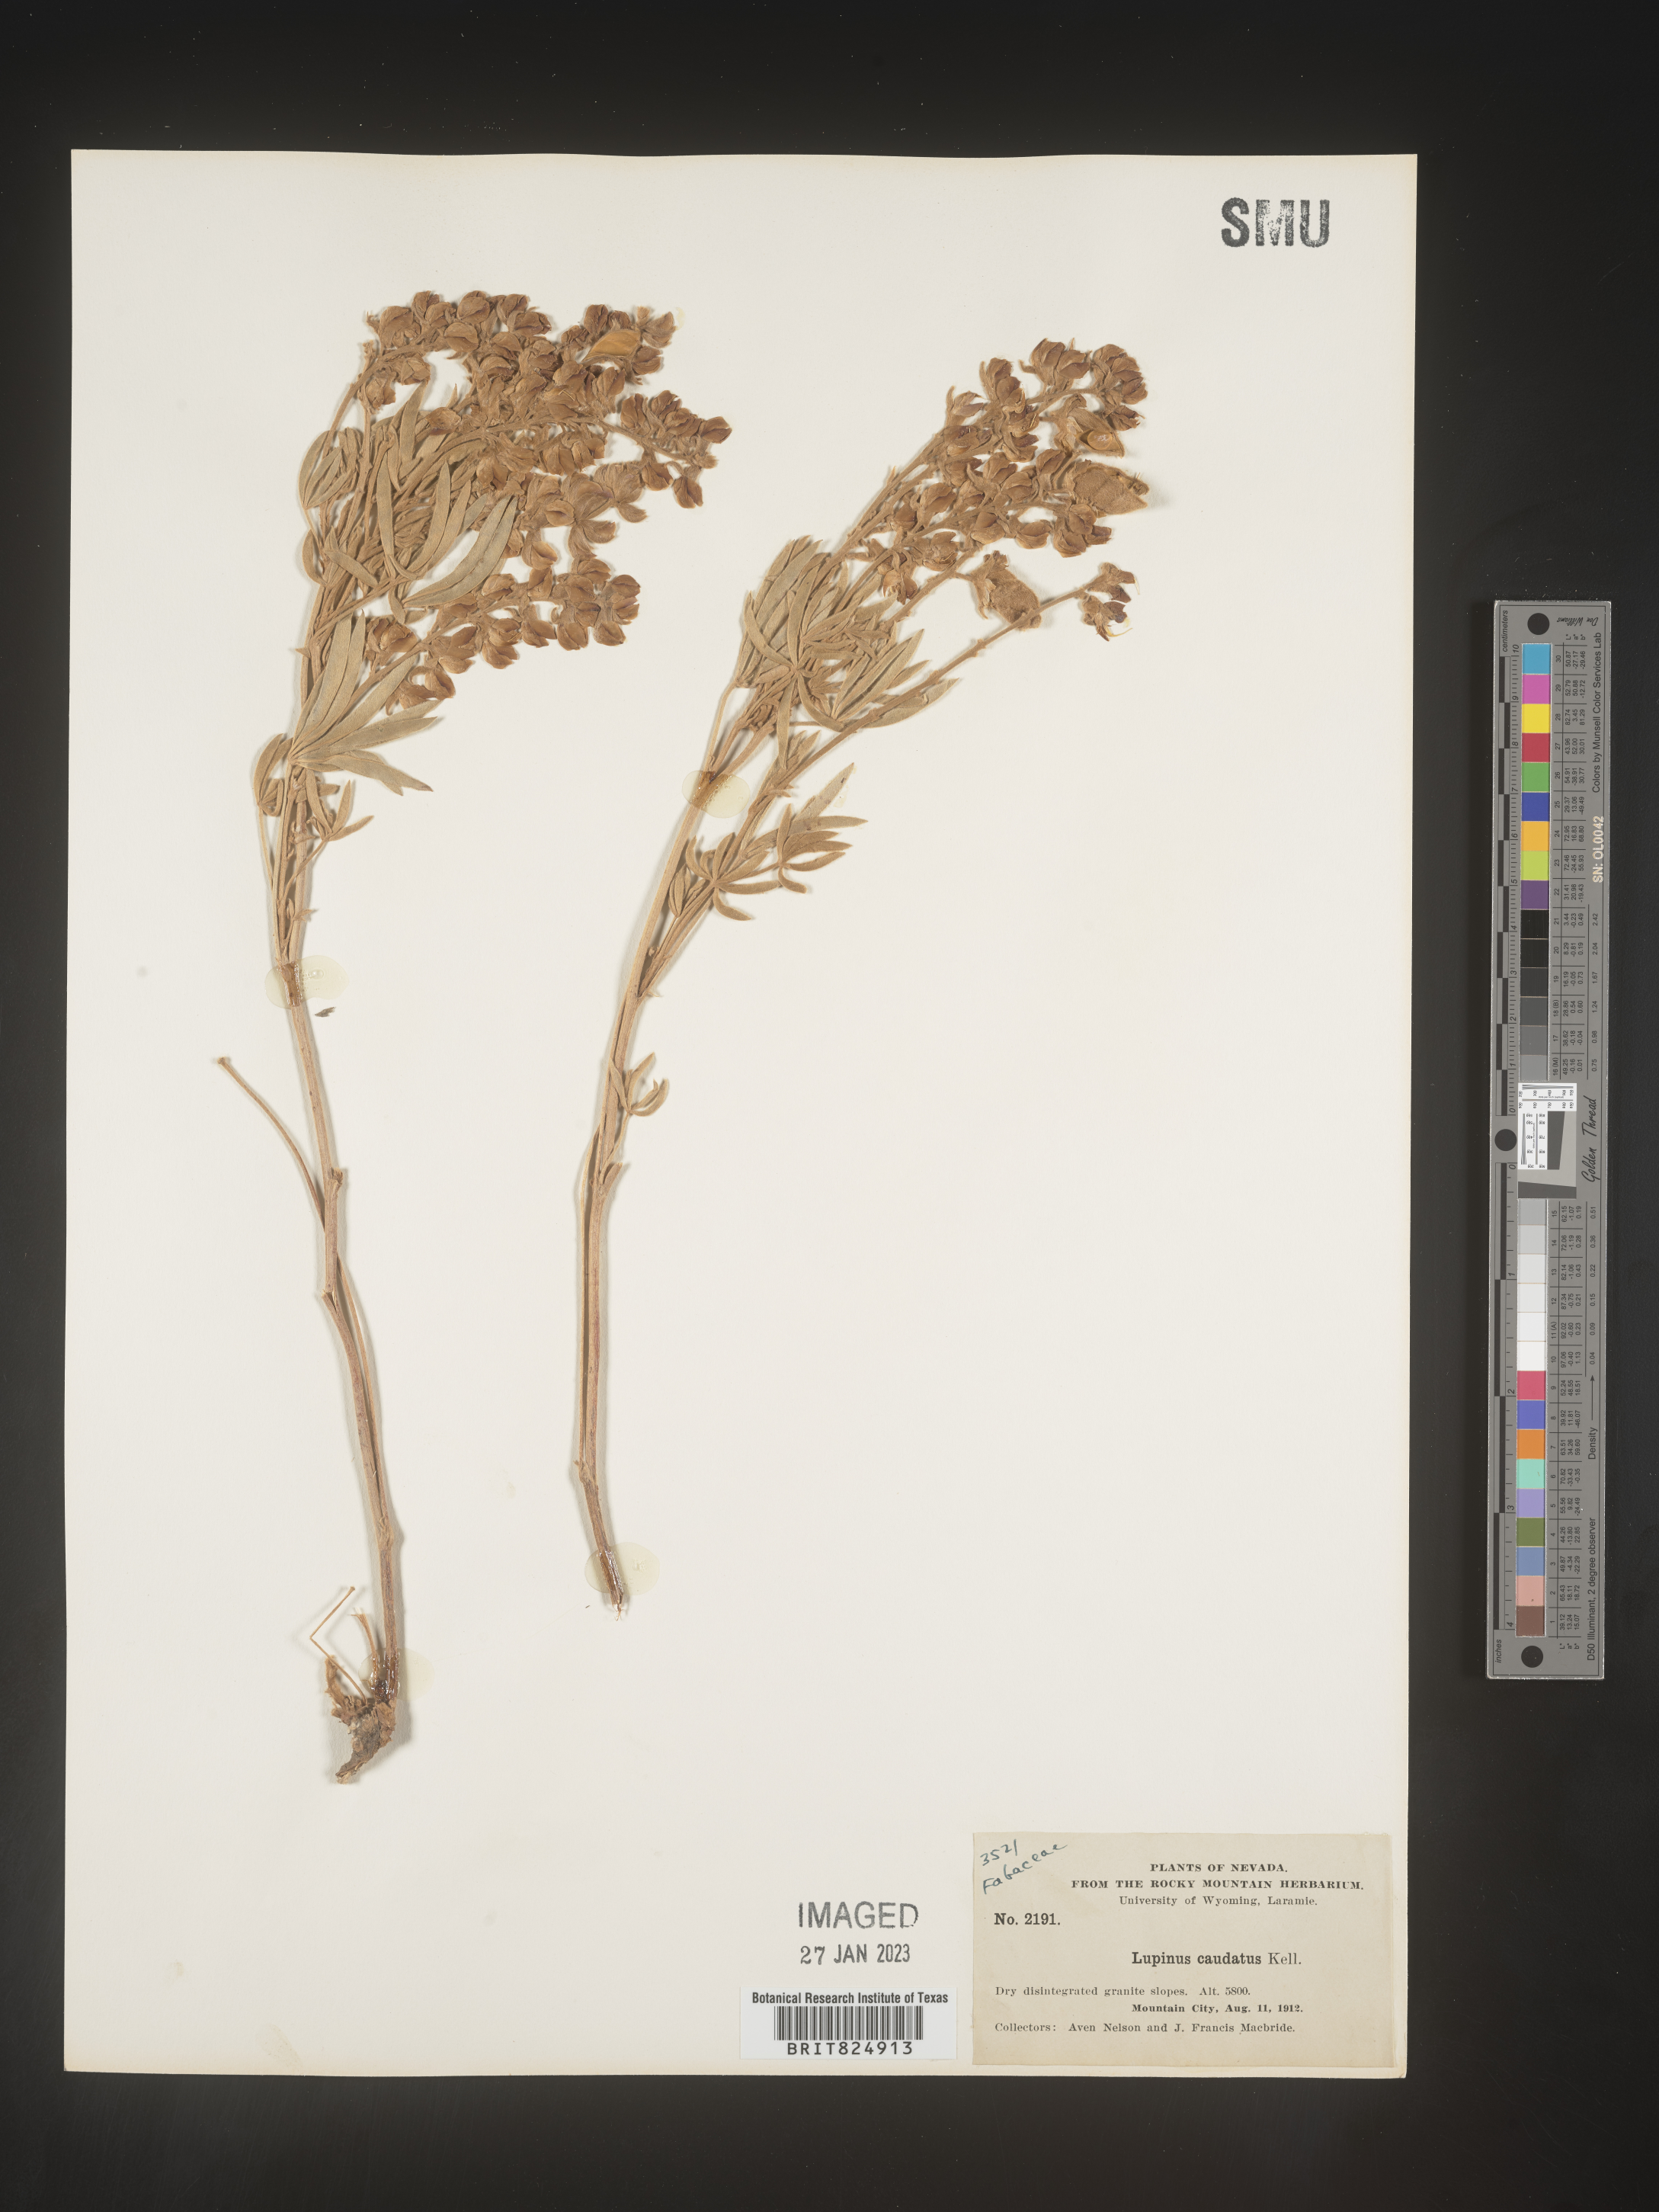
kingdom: Plantae
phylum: Tracheophyta
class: Magnoliopsida
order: Fabales
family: Fabaceae
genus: Lupinus
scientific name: Lupinus caudatus
